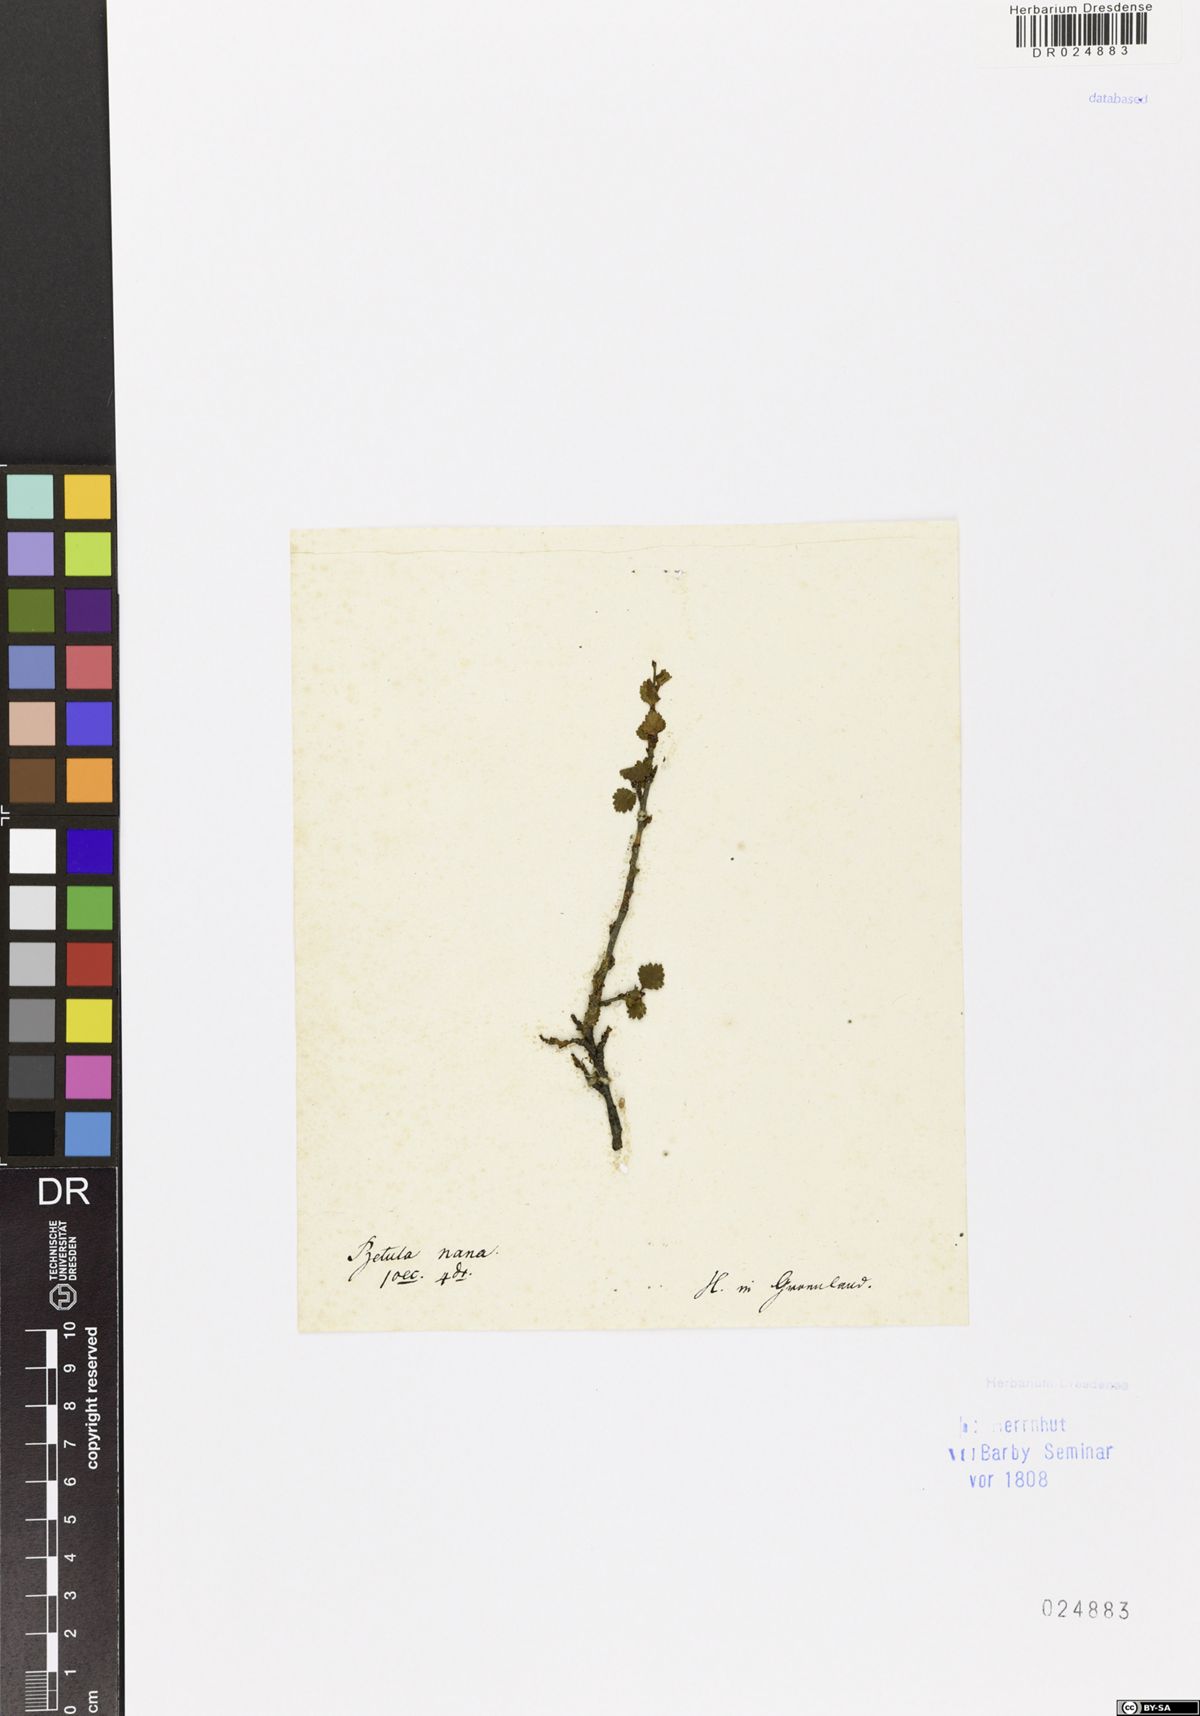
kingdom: Plantae
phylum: Tracheophyta
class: Magnoliopsida
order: Fagales
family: Betulaceae
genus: Betula
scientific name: Betula nana
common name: Arctic dwarf birch
